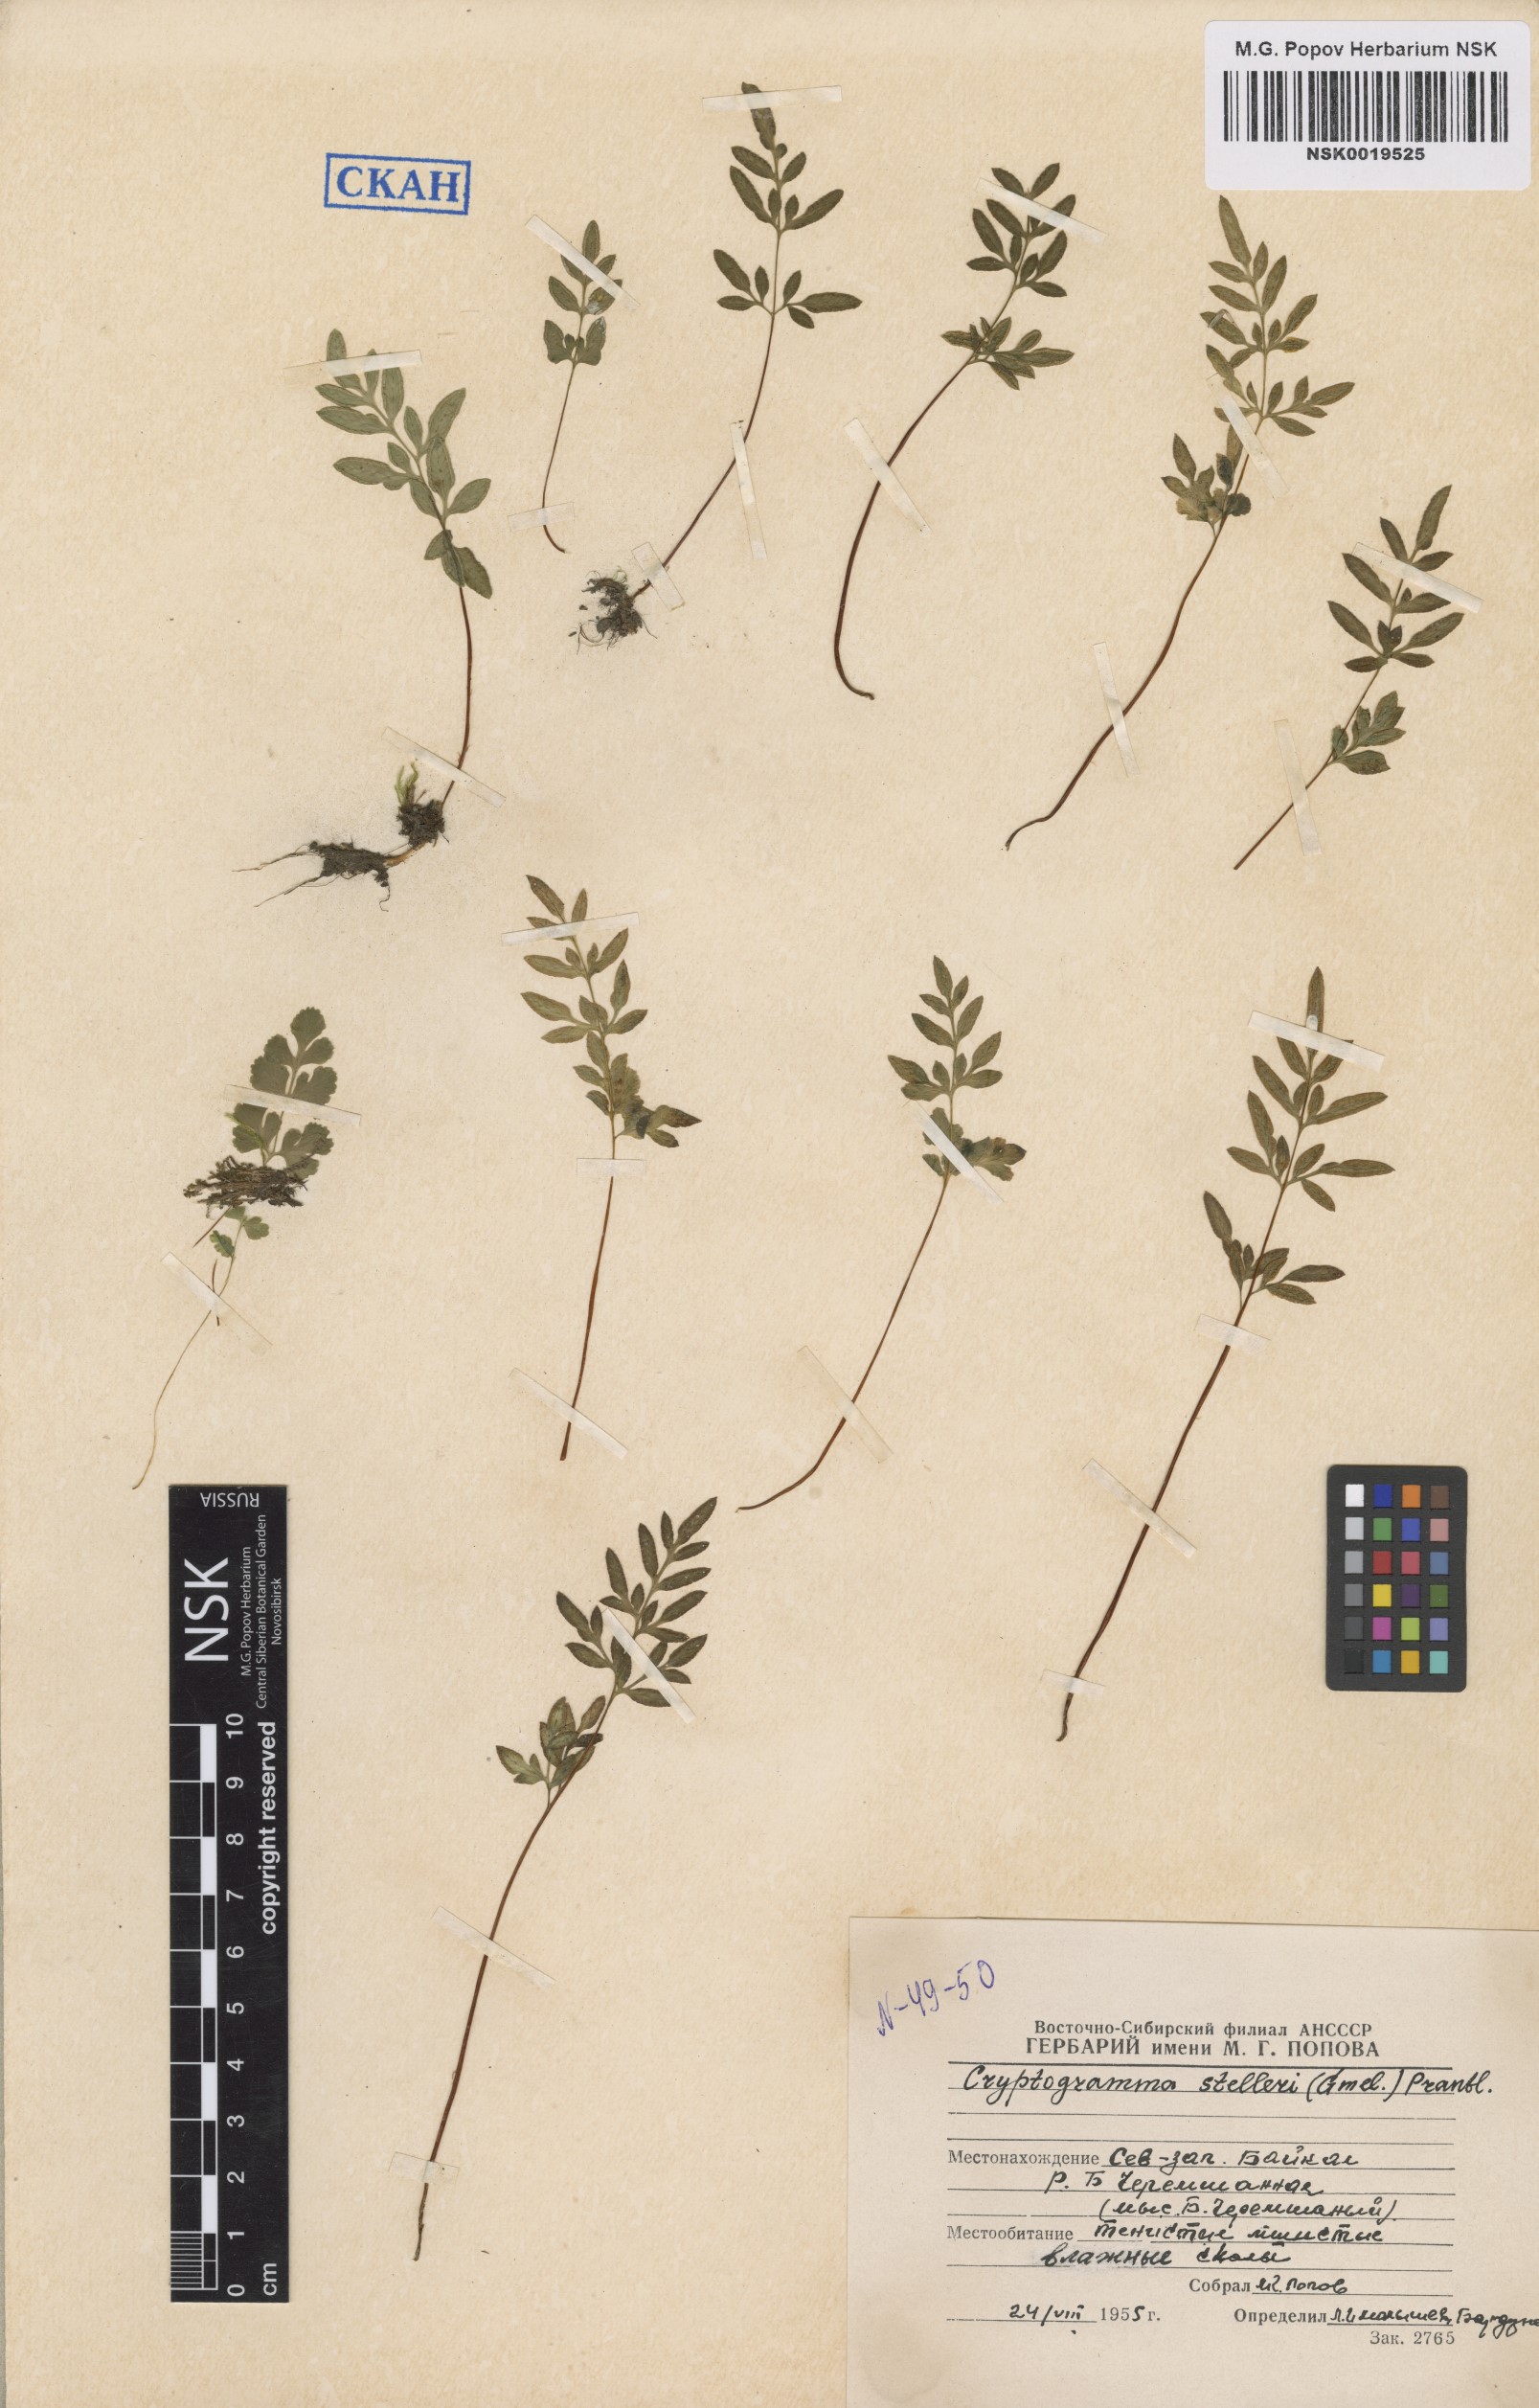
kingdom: Plantae
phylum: Tracheophyta
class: Polypodiopsida
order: Polypodiales
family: Pteridaceae
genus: Cryptogramma
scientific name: Cryptogramma stelleri
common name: Cliff-brake
